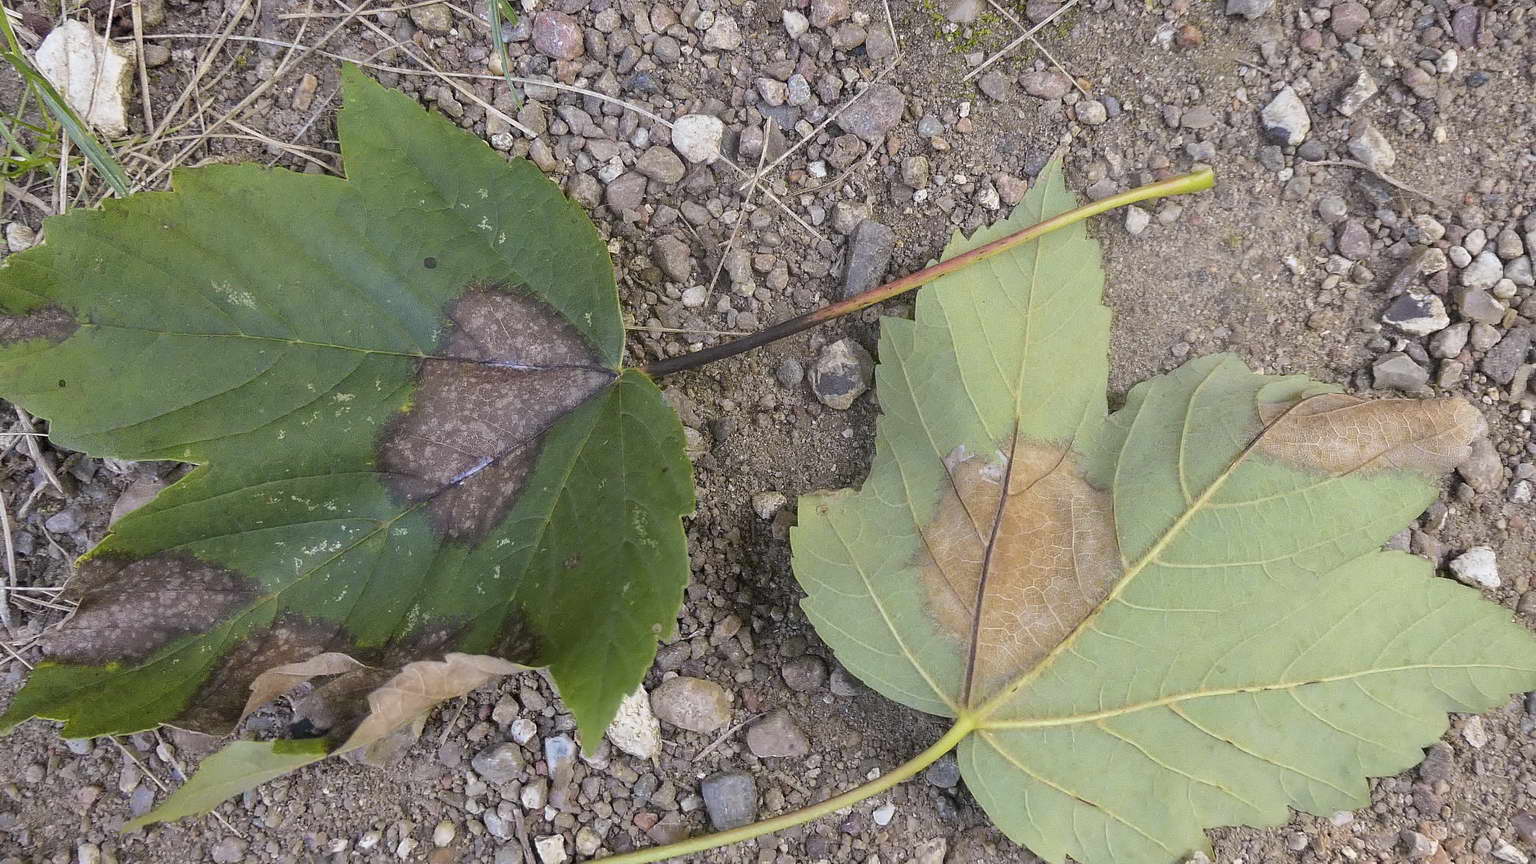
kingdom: Fungi
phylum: Ascomycota
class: Sordariomycetes
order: Diaporthales
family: Gnomoniaceae
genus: Pleuroceras
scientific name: Pleuroceras pseudoplatani
